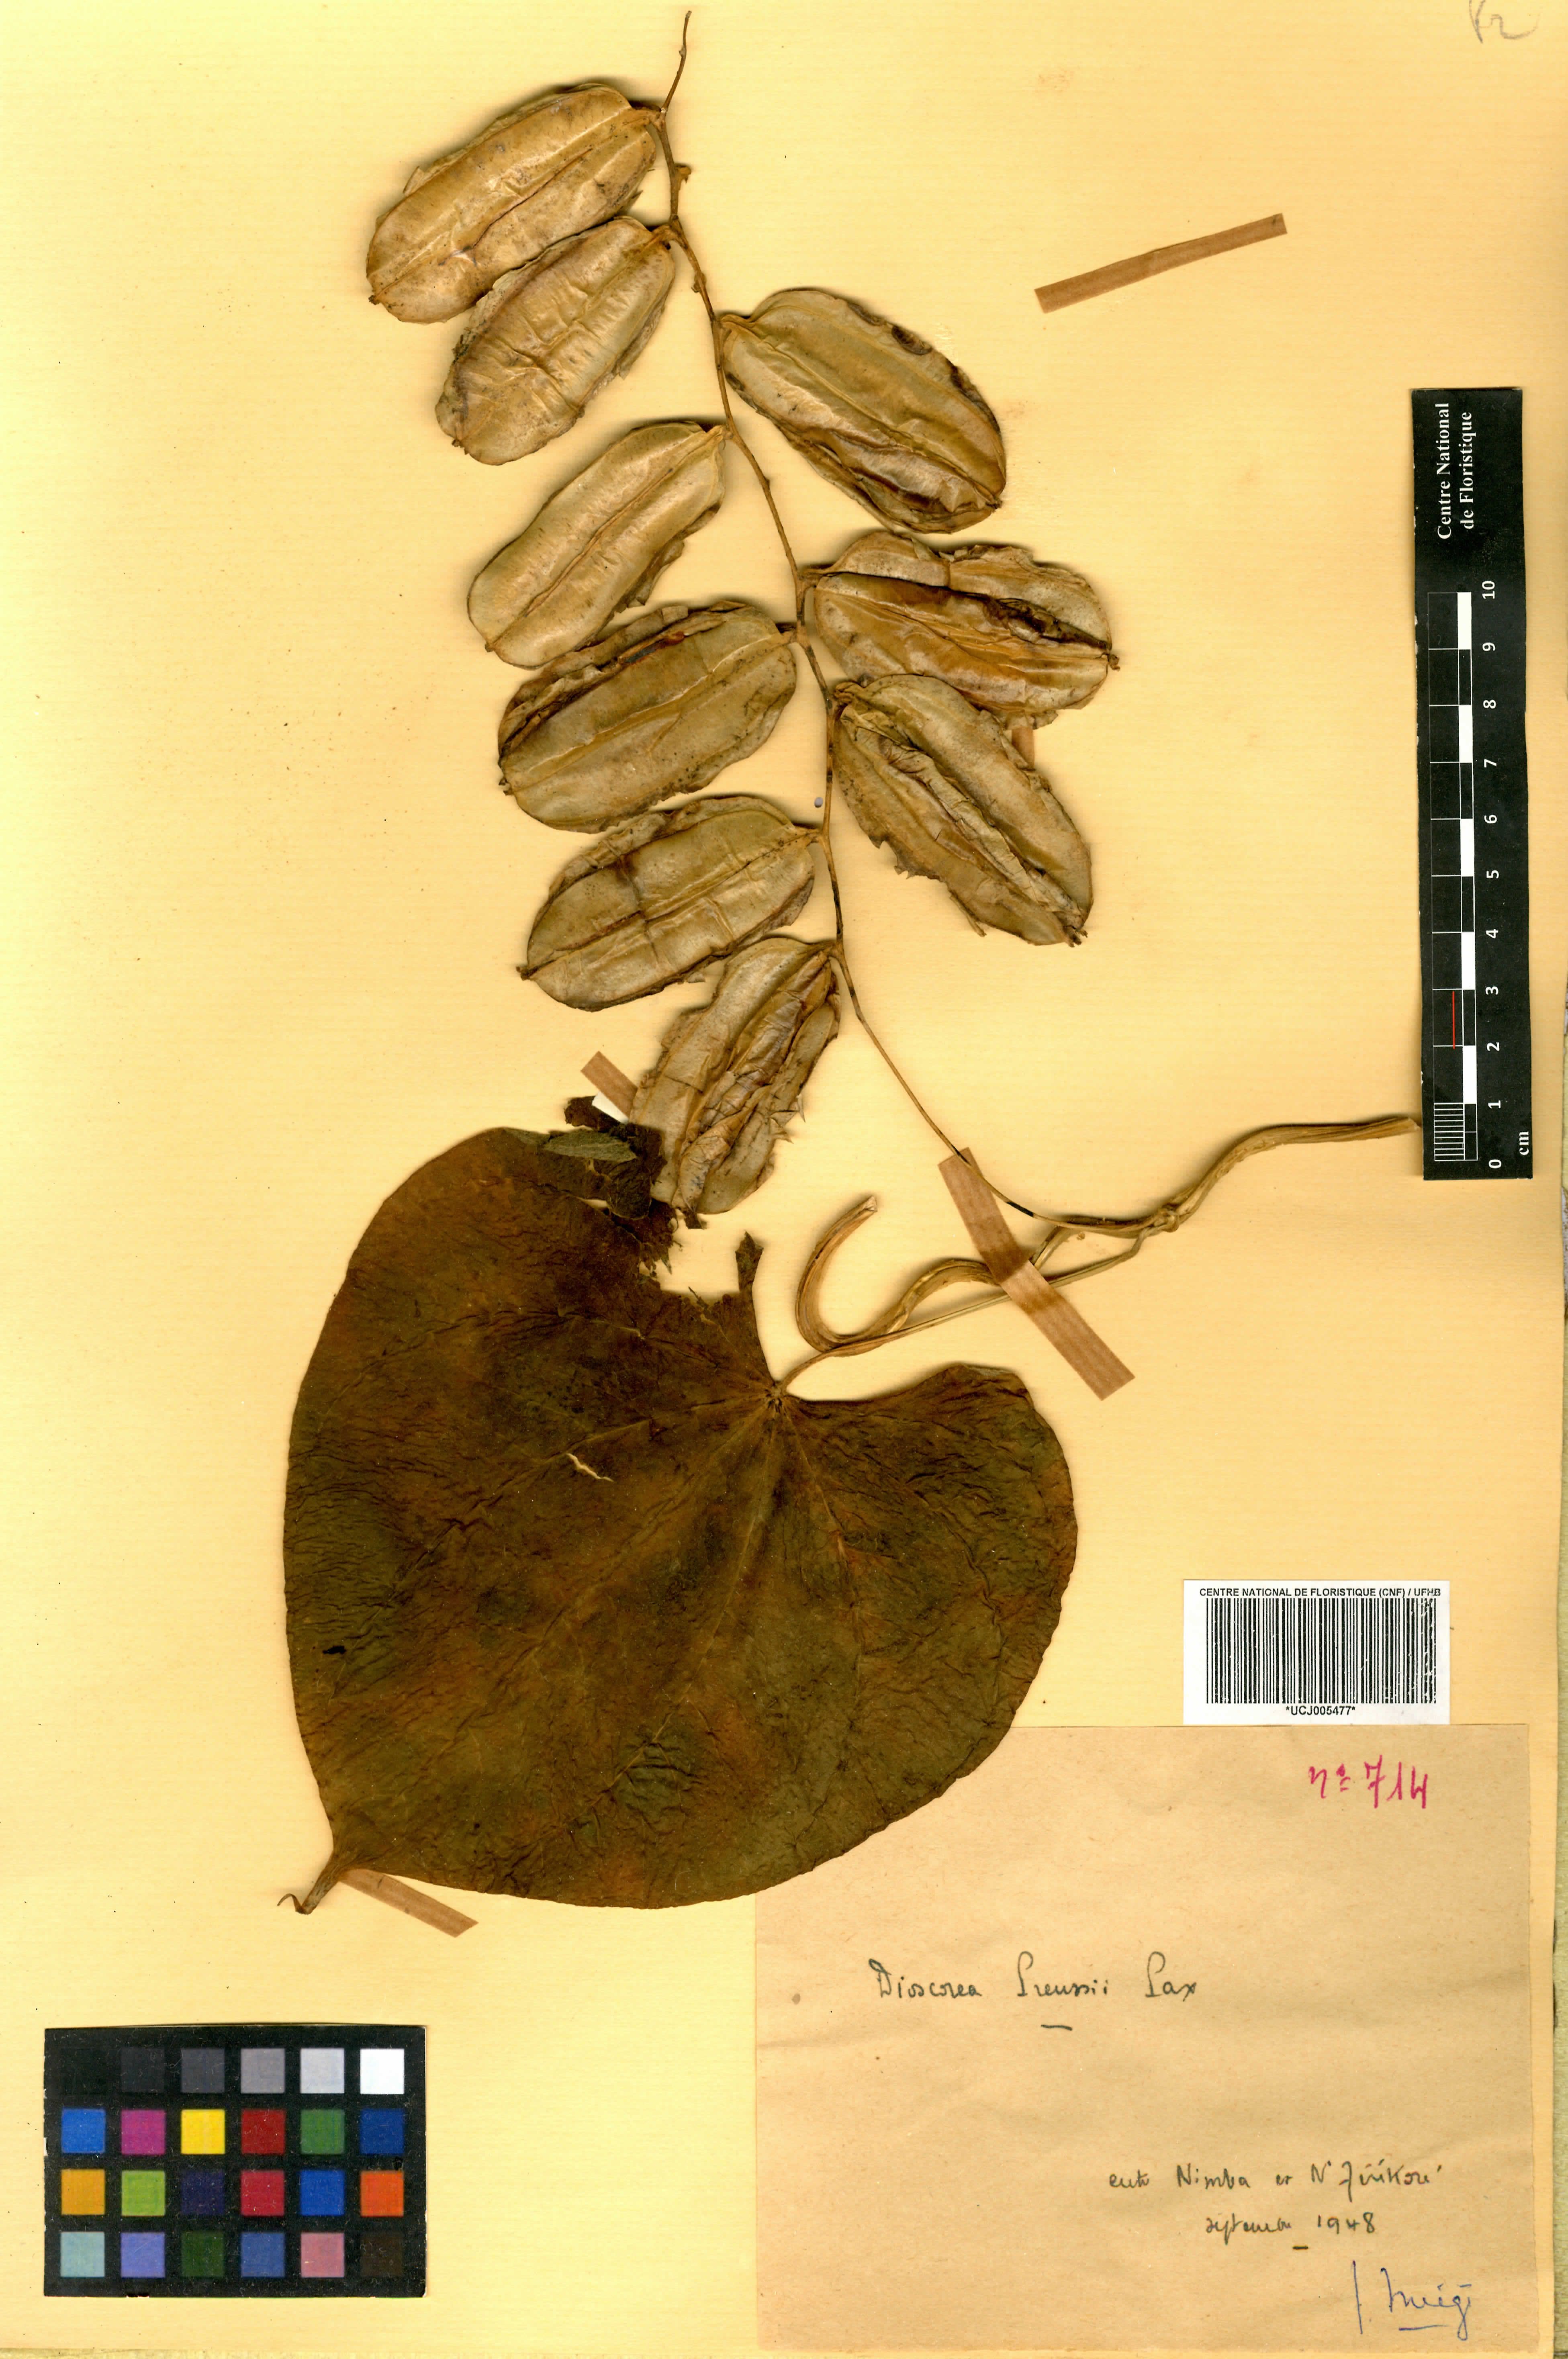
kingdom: Plantae
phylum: Tracheophyta
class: Liliopsida
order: Dioscoreales
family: Dioscoreaceae
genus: Dioscorea
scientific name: Dioscorea preussii
